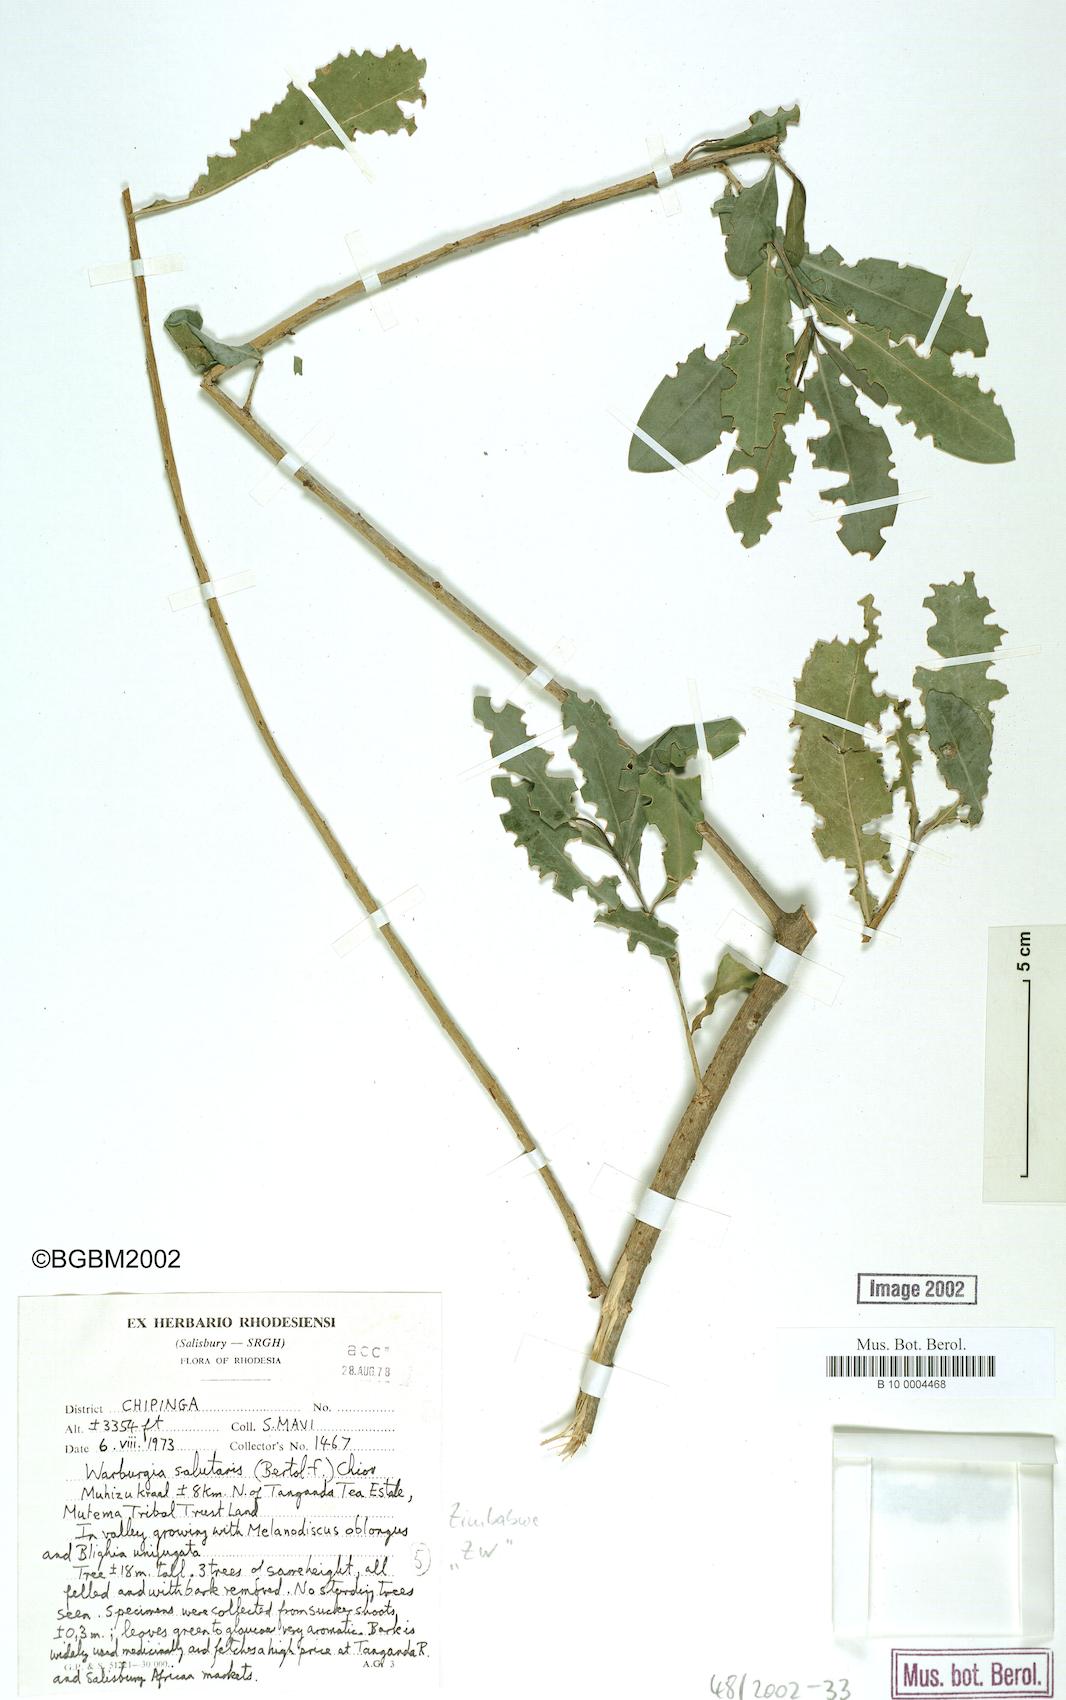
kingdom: Plantae
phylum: Tracheophyta
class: Magnoliopsida
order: Canellales
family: Canellaceae
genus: Warburgia
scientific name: Warburgia salutaris
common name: Pepper bark tree
